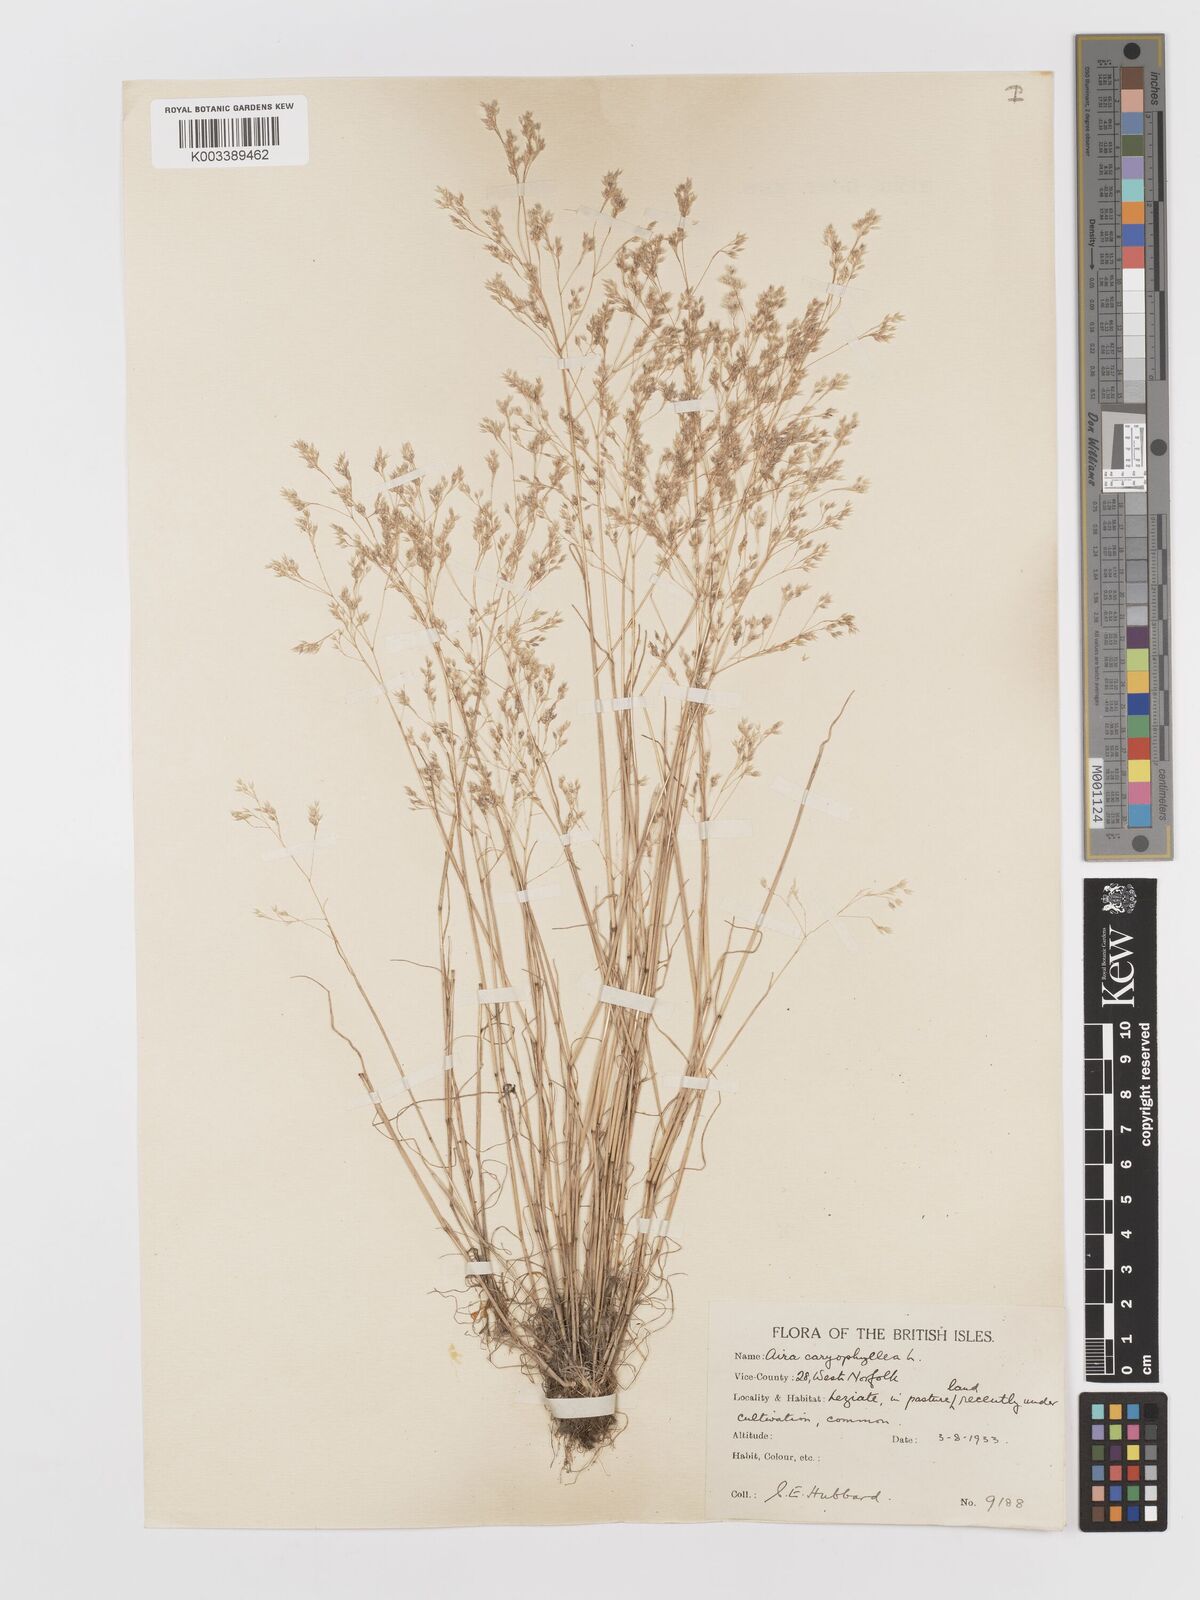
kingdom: Plantae
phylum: Tracheophyta
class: Liliopsida
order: Poales
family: Poaceae
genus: Aira
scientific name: Aira caryophyllea
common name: Silver hairgrass
